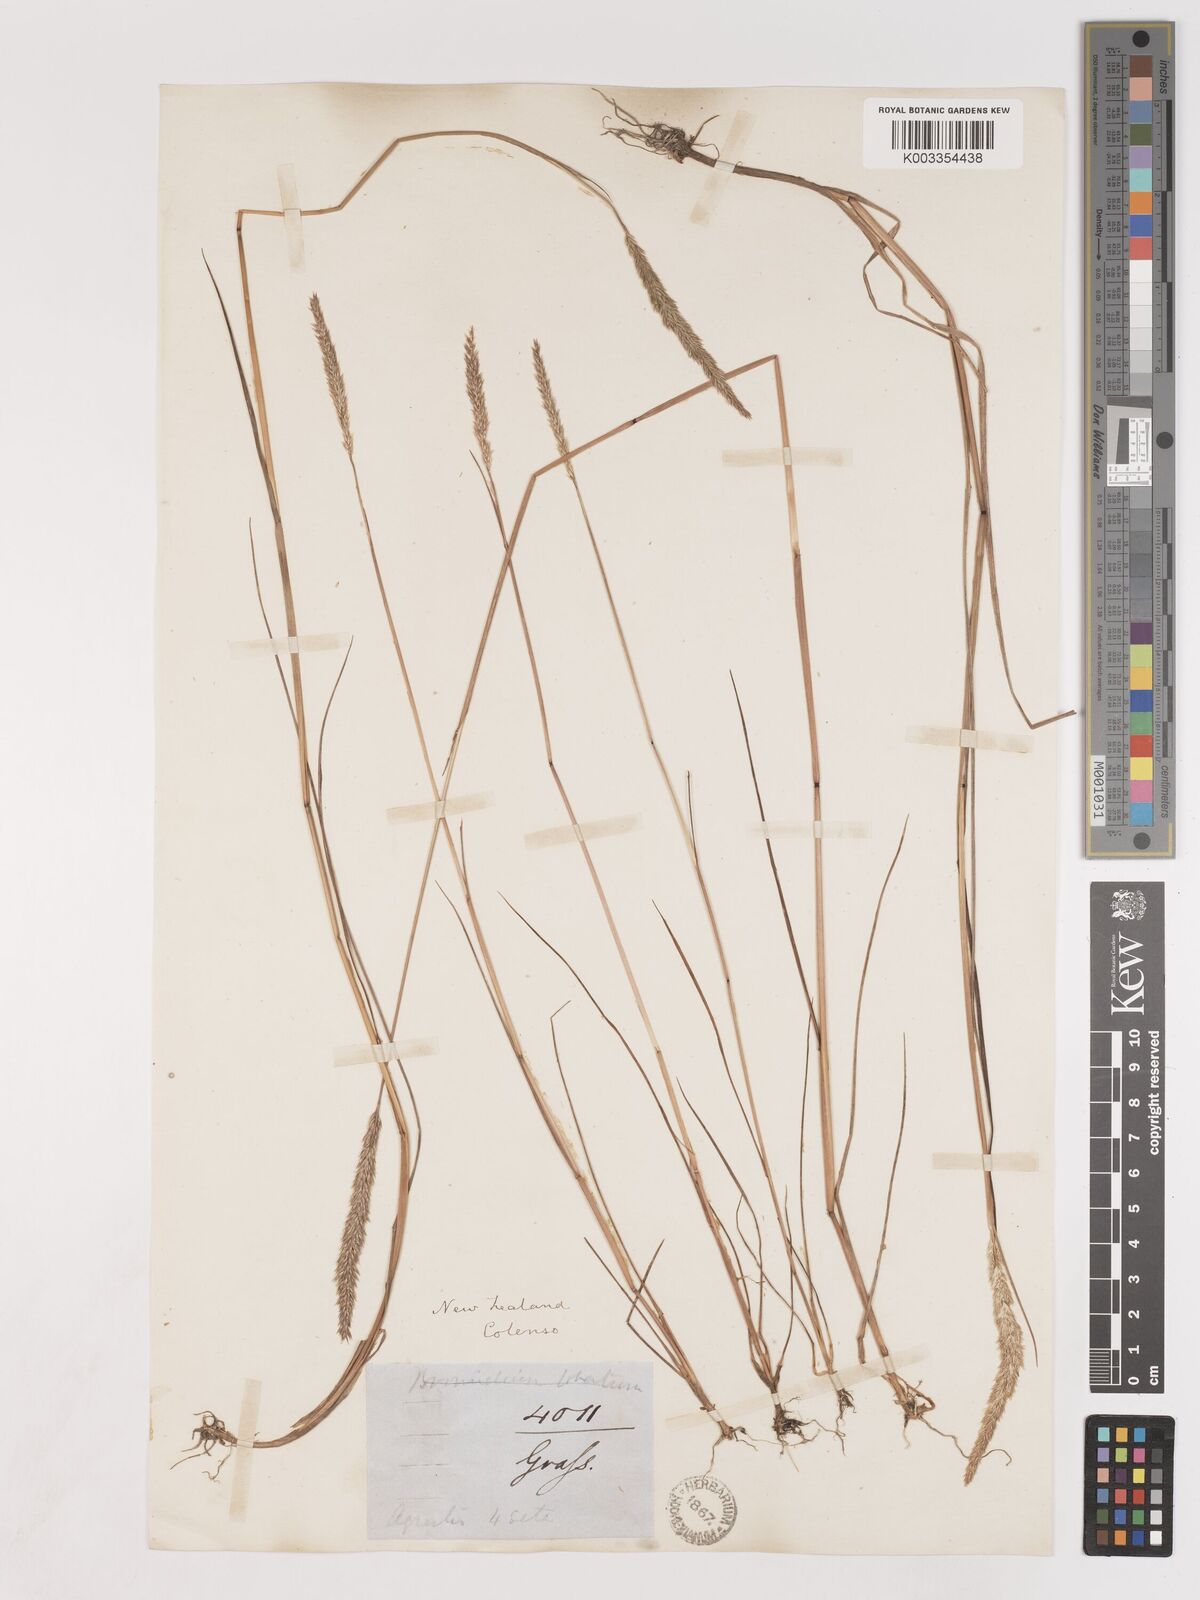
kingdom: Plantae
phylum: Tracheophyta
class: Liliopsida
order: Poales
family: Poaceae
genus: Calamagrostis
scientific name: Calamagrostis quadriseta
